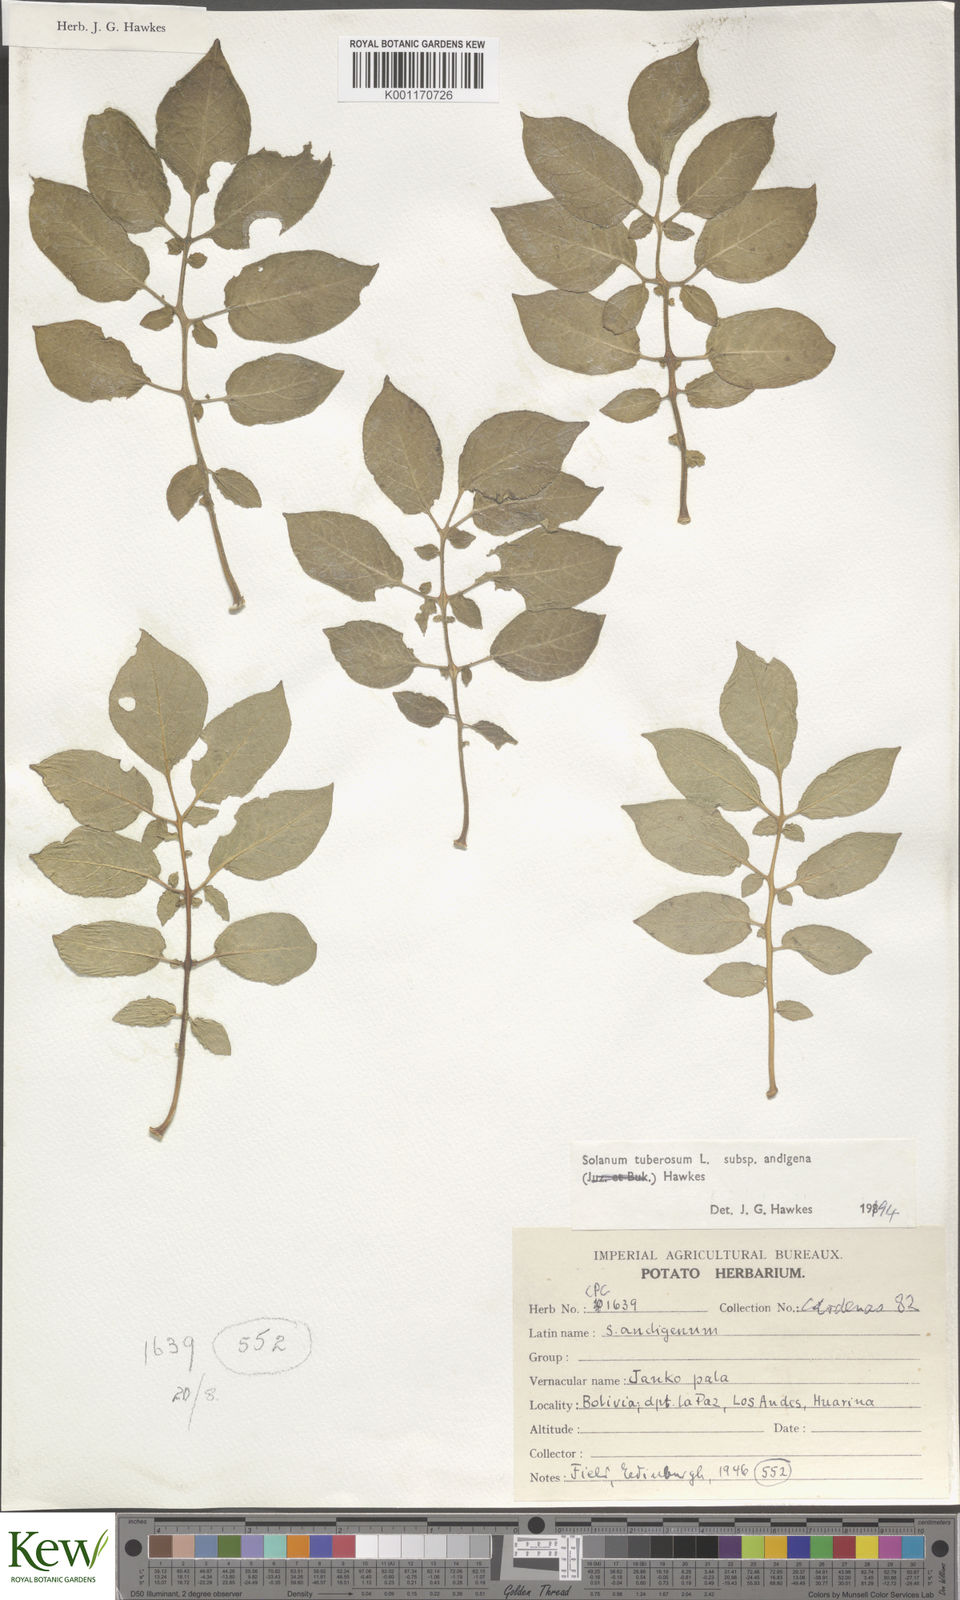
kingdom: Plantae
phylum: Tracheophyta
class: Magnoliopsida
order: Solanales
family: Solanaceae
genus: Solanum
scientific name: Solanum tuberosum
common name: Potato
